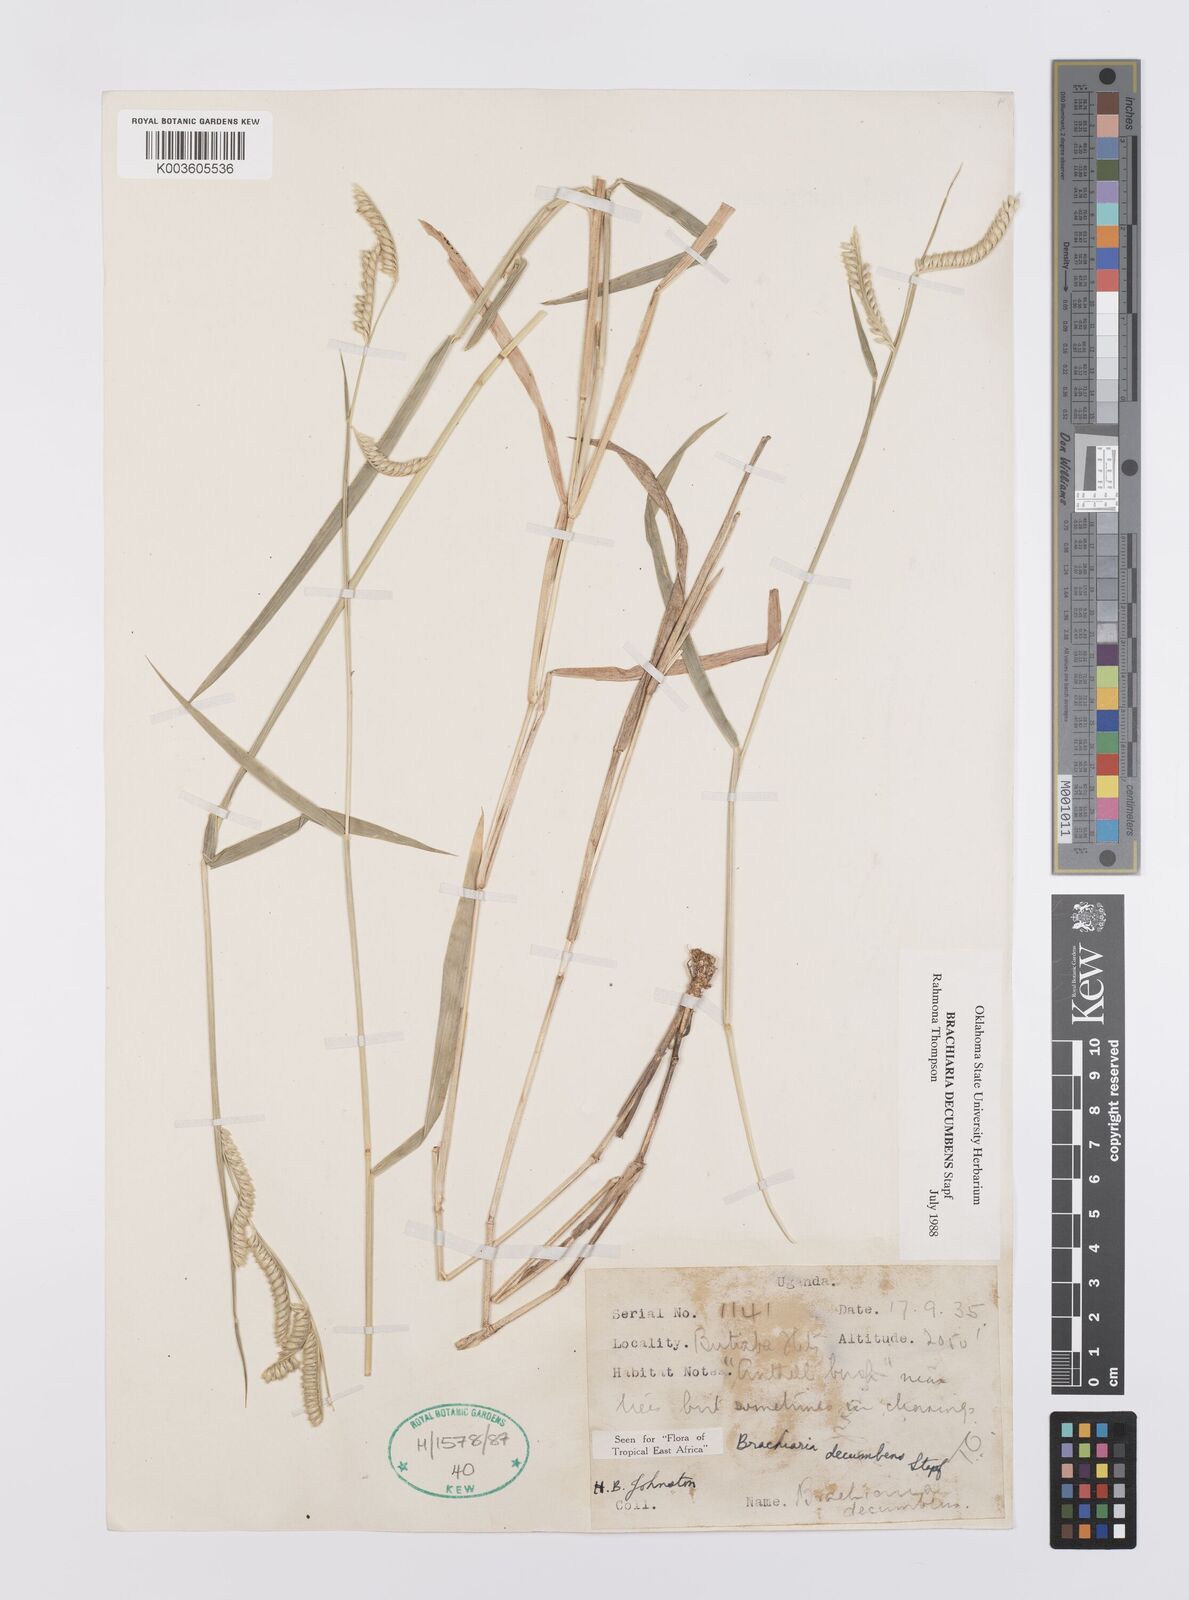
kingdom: Plantae
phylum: Tracheophyta
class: Liliopsida
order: Poales
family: Poaceae
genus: Urochloa
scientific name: Urochloa eminii
